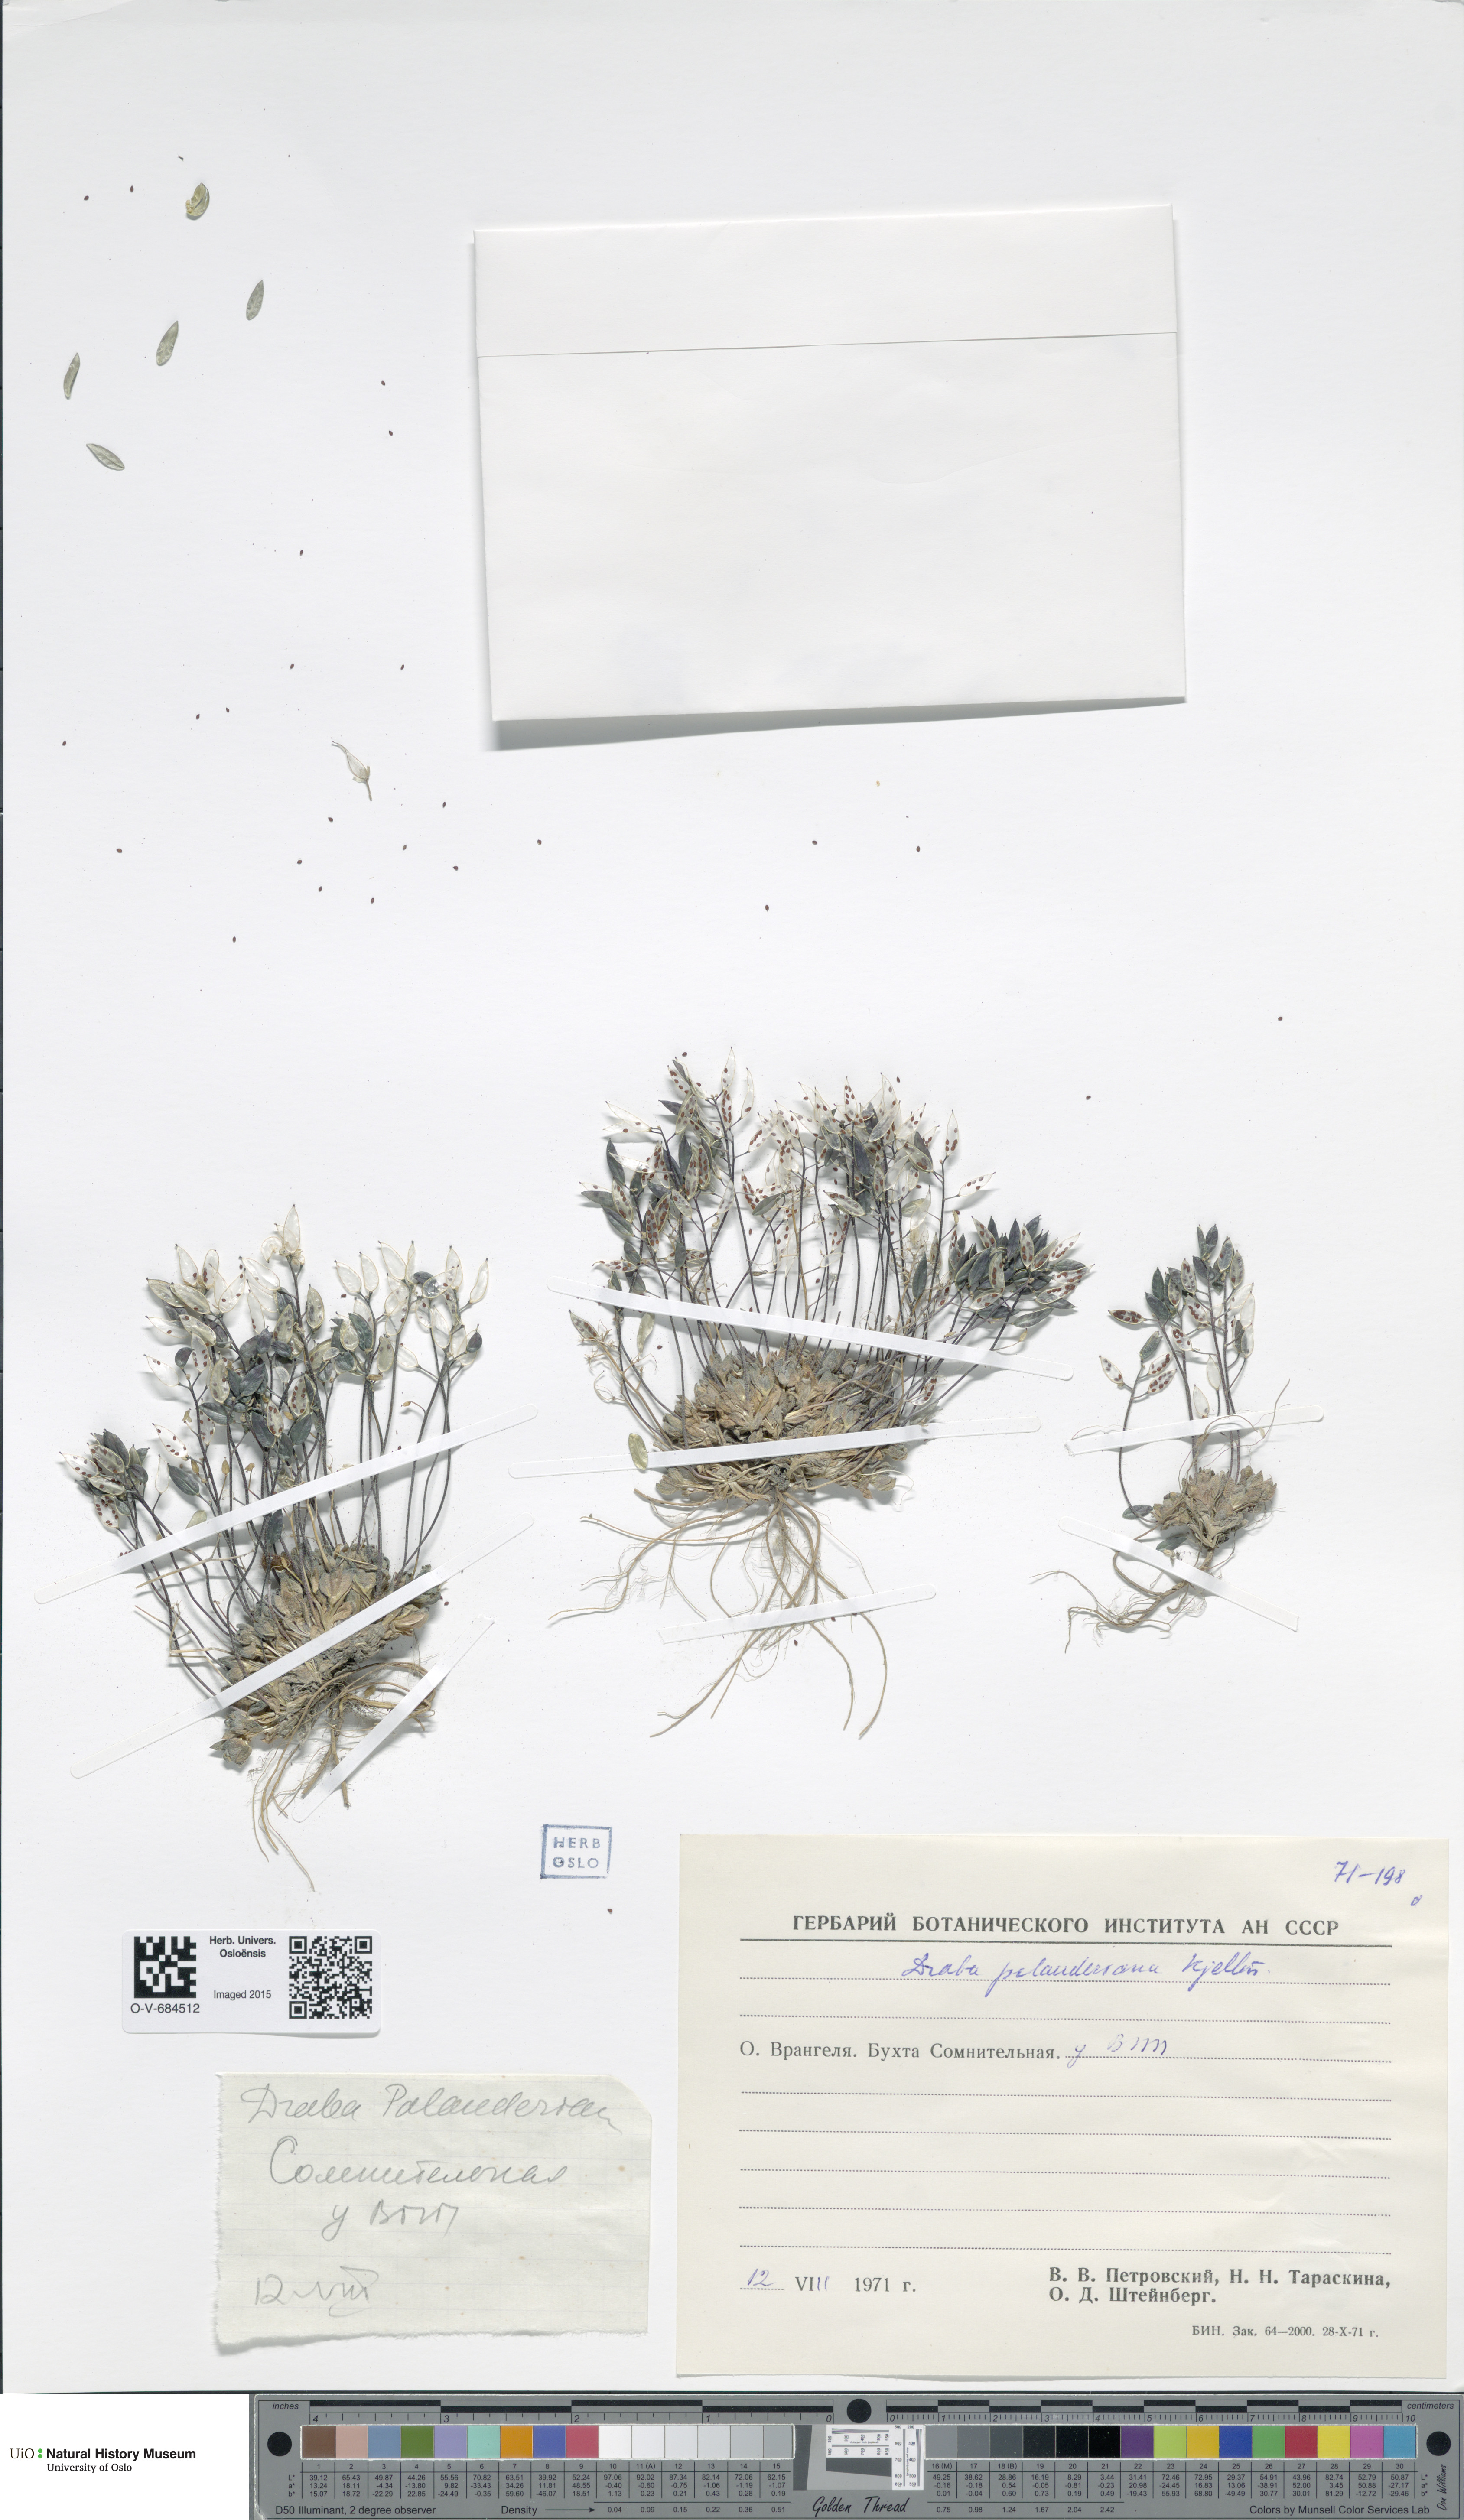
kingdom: Plantae
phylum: Tracheophyta
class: Magnoliopsida
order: Brassicales
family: Brassicaceae
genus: Draba
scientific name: Draba palanderiana
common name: Palander's draba
